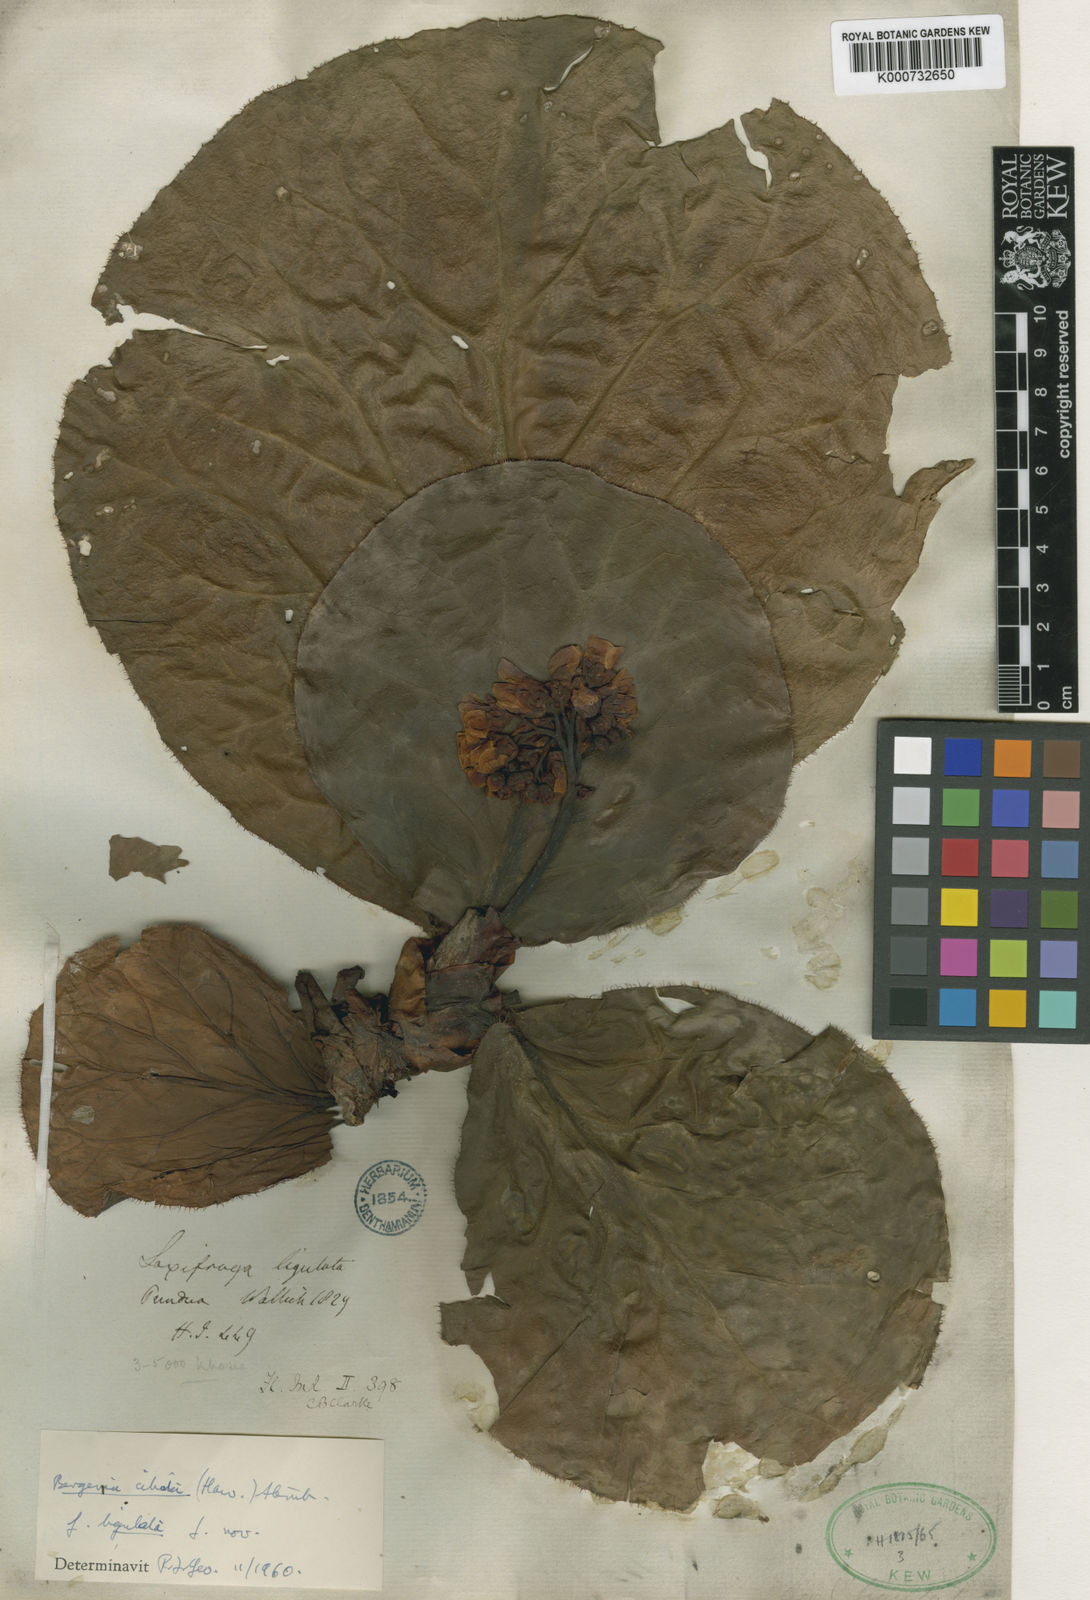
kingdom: Plantae
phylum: Tracheophyta
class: Magnoliopsida
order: Saxifragales
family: Saxifragaceae
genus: Bergenia
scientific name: Bergenia ciliata
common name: Hairy bergenia
